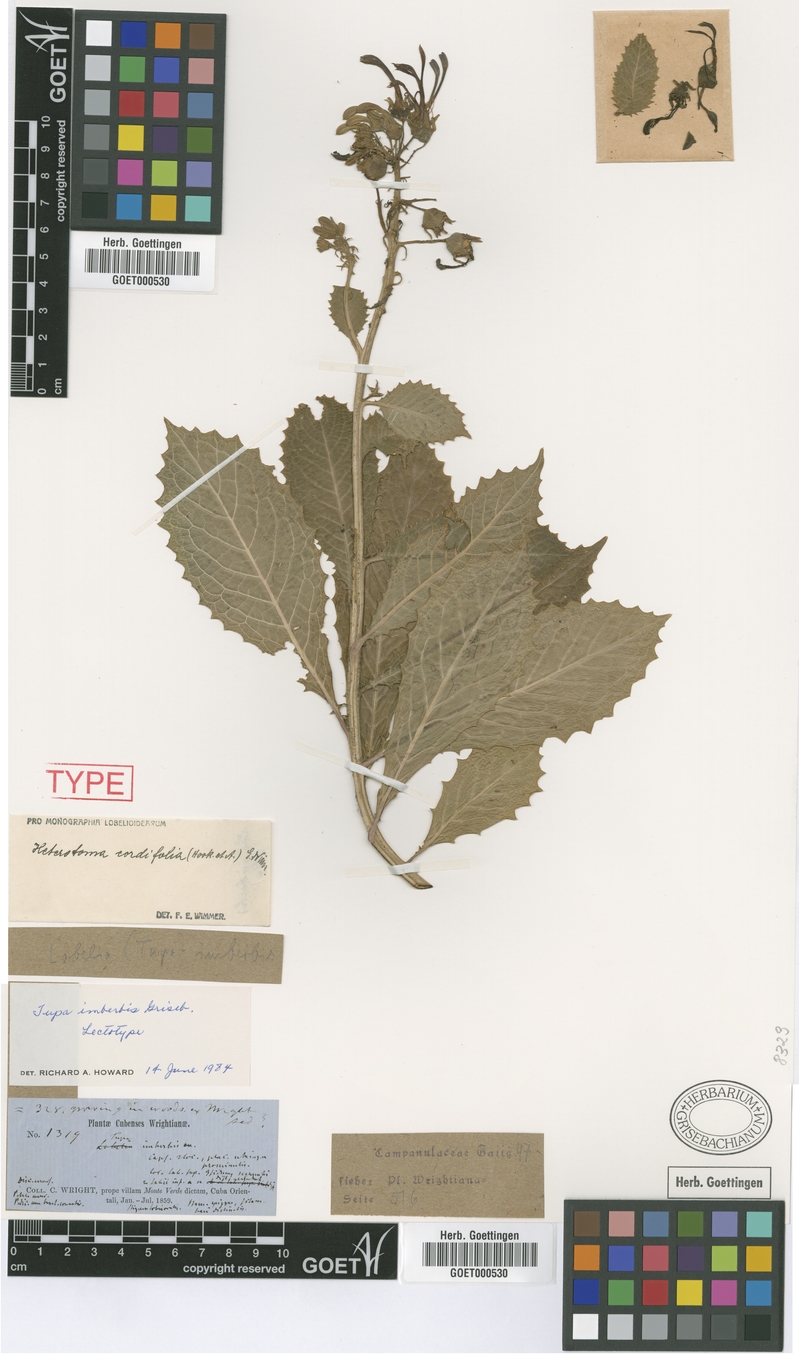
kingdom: Plantae
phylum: Tracheophyta
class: Magnoliopsida
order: Asterales
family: Campanulaceae
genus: Lobelia
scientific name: Lobelia imberbis
